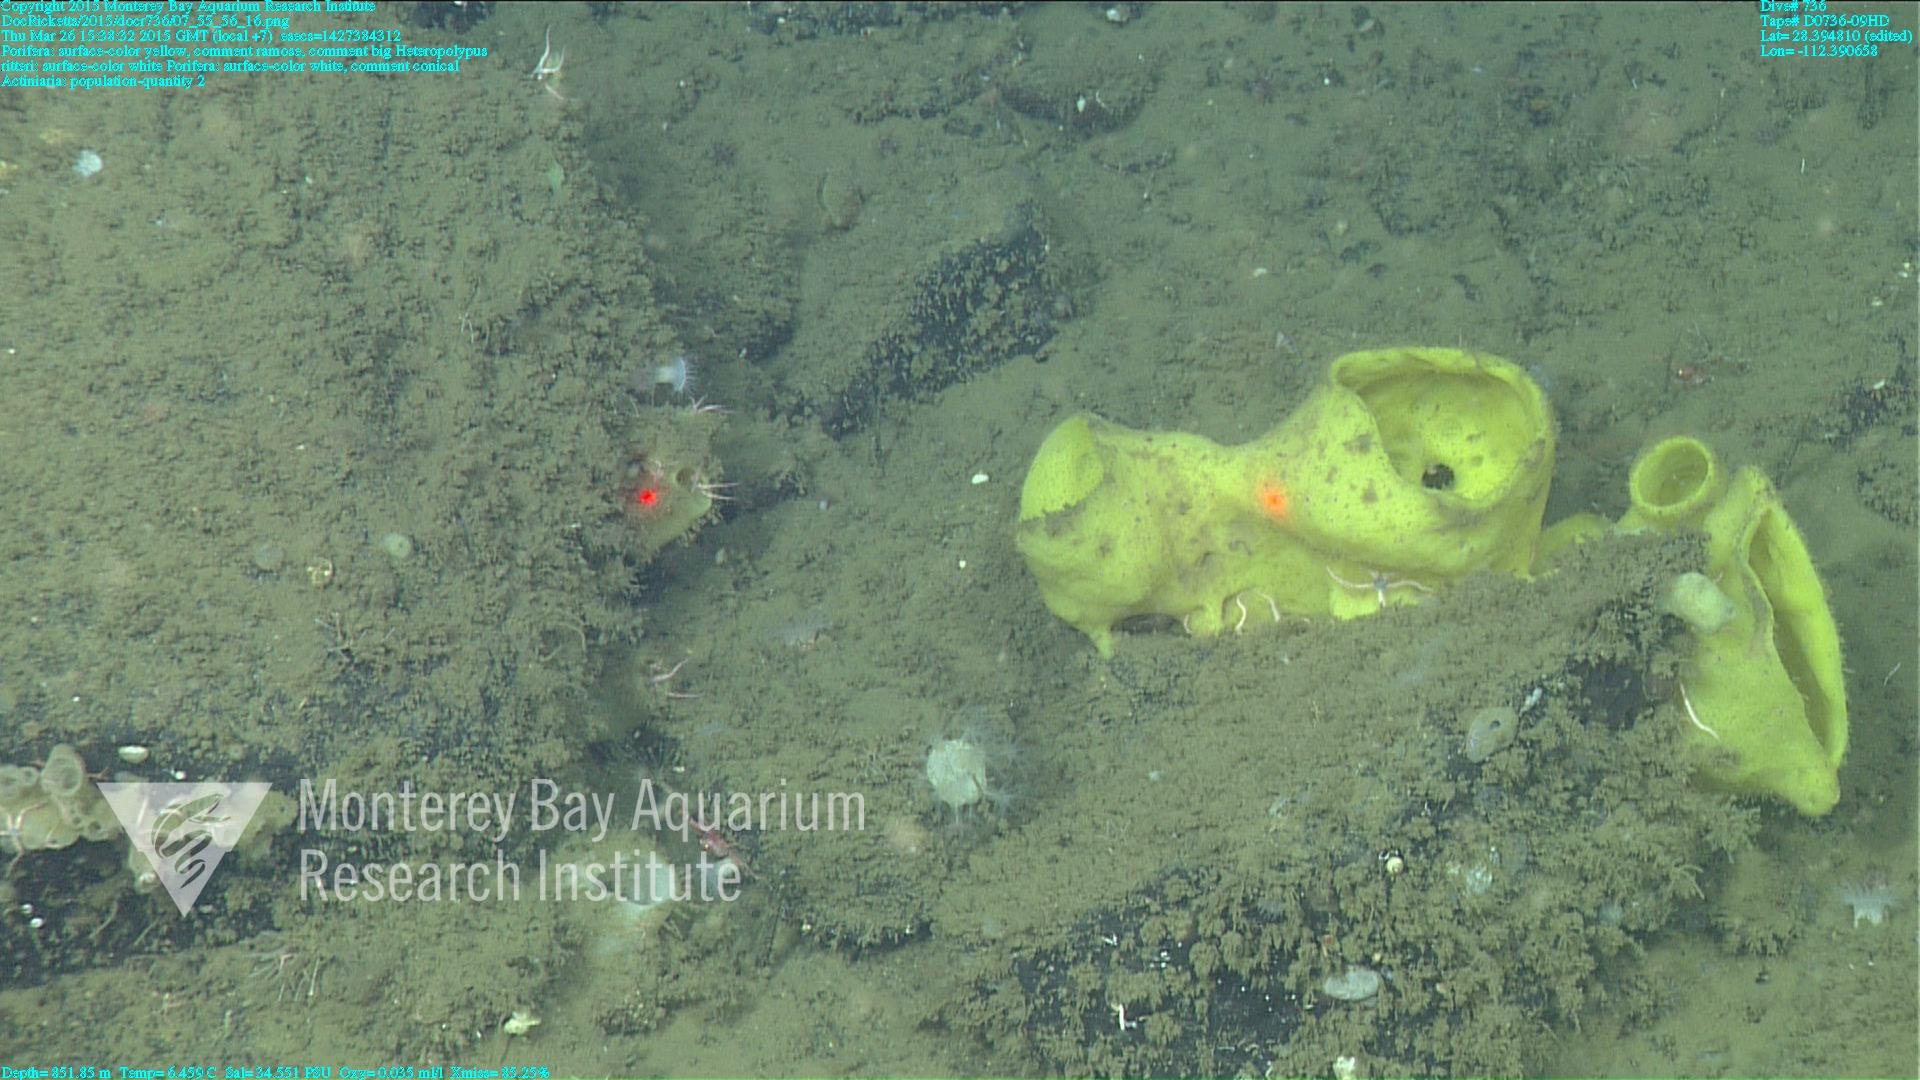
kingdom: Animalia
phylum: Cnidaria
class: Anthozoa
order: Scleralcyonacea
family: Coralliidae
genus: Heteropolypus
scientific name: Heteropolypus ritteri
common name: Ritter's soft coral
